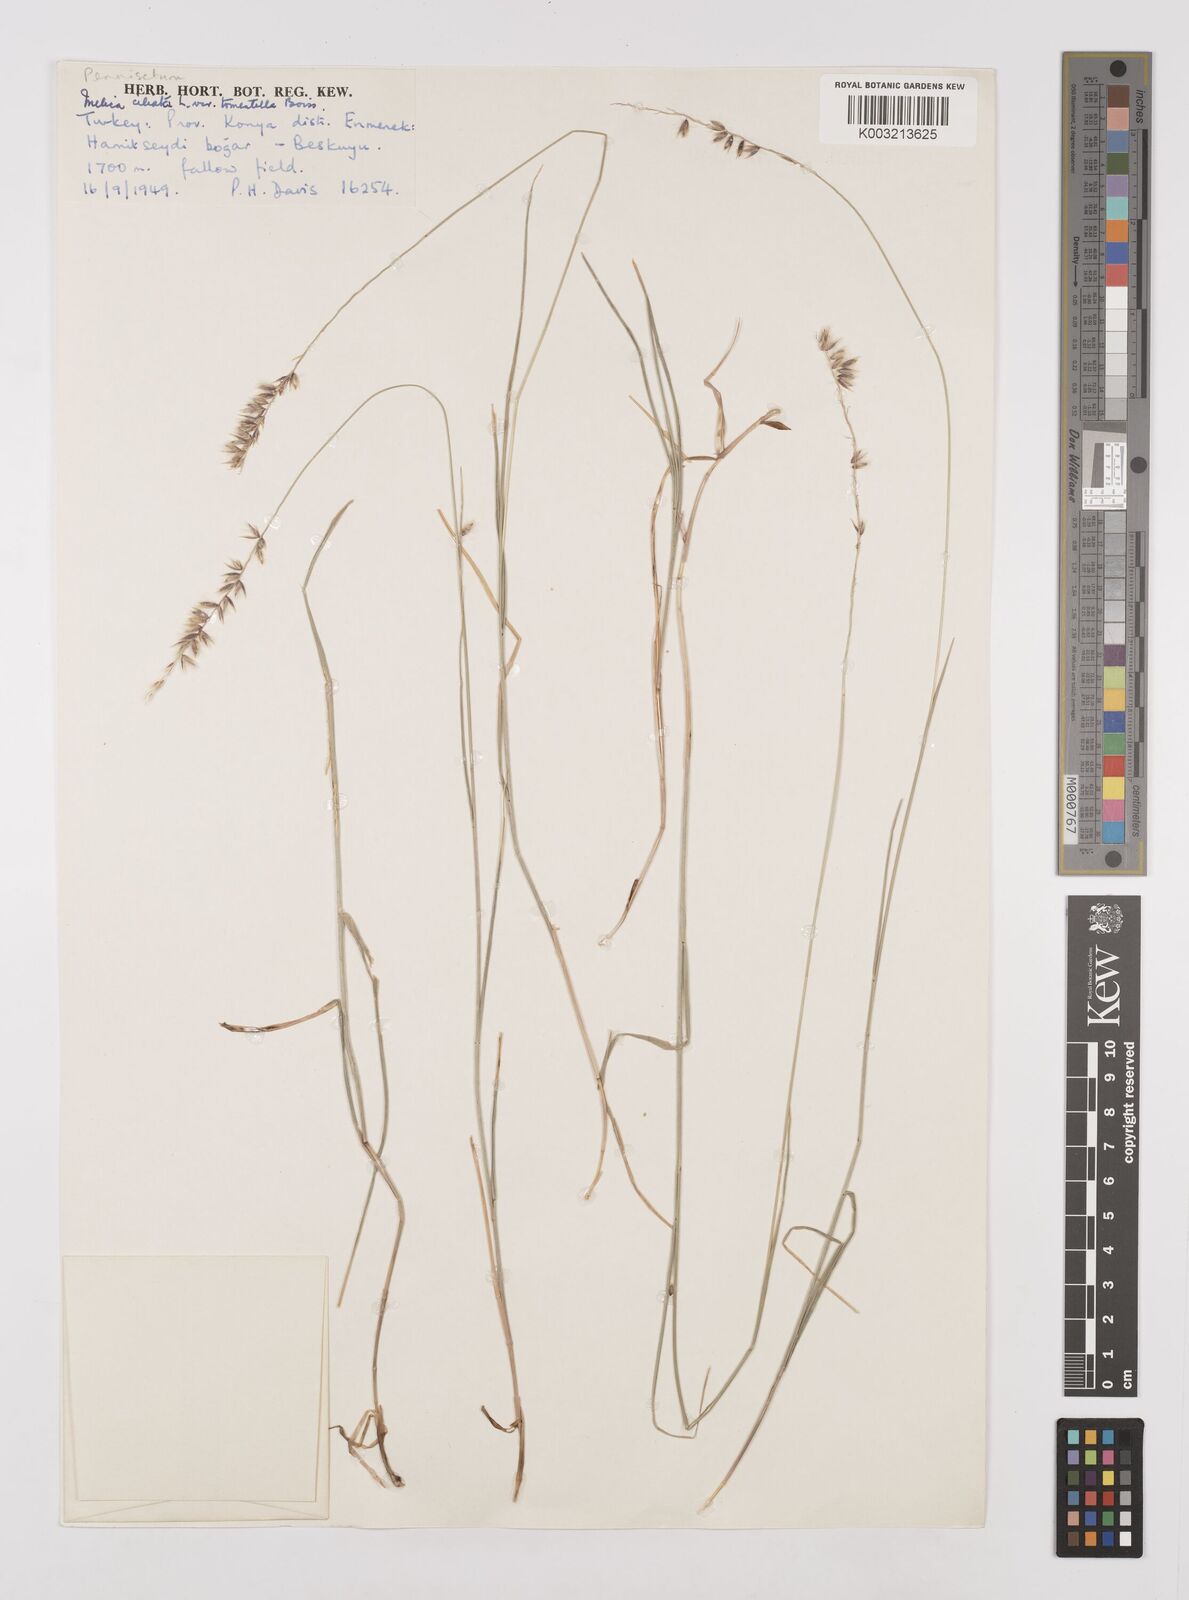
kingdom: Plantae
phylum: Tracheophyta
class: Liliopsida
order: Poales
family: Poaceae
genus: Melica
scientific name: Melica ciliata
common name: Hairy melicgrass
